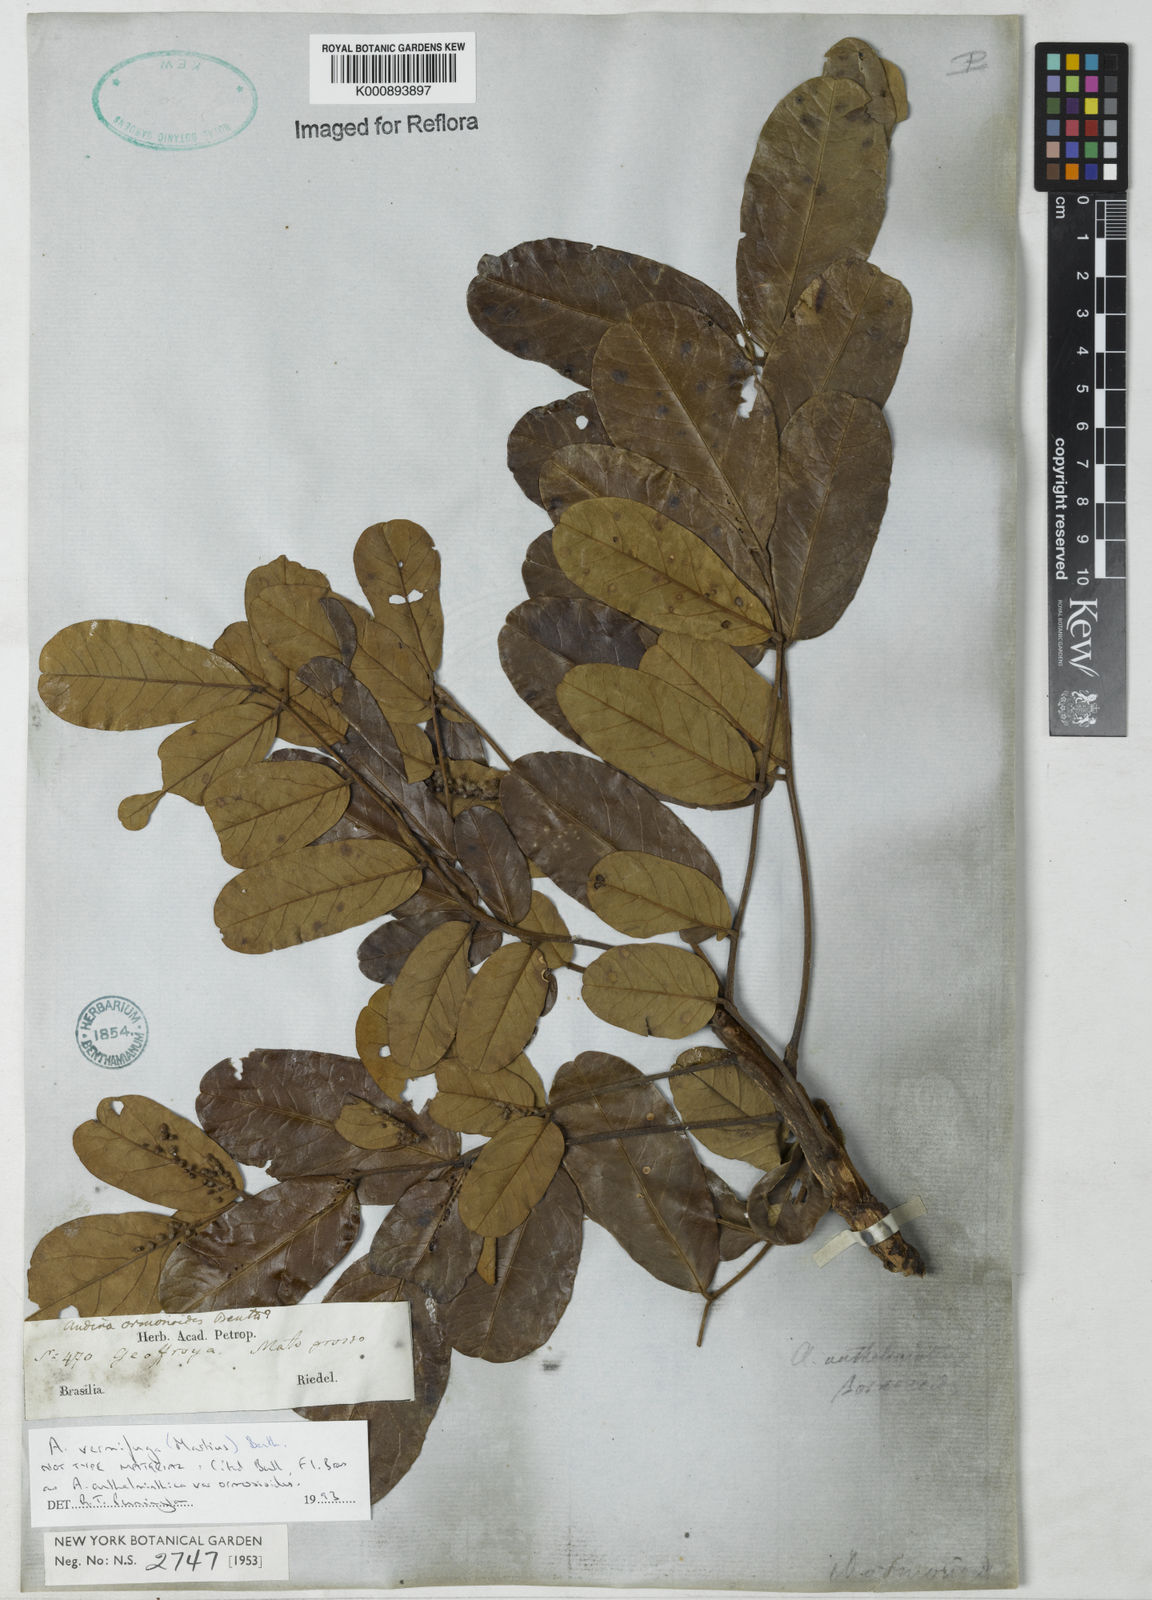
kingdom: Plantae
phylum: Tracheophyta
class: Magnoliopsida
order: Fabales
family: Fabaceae
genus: Andira
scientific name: Andira vermifuga
